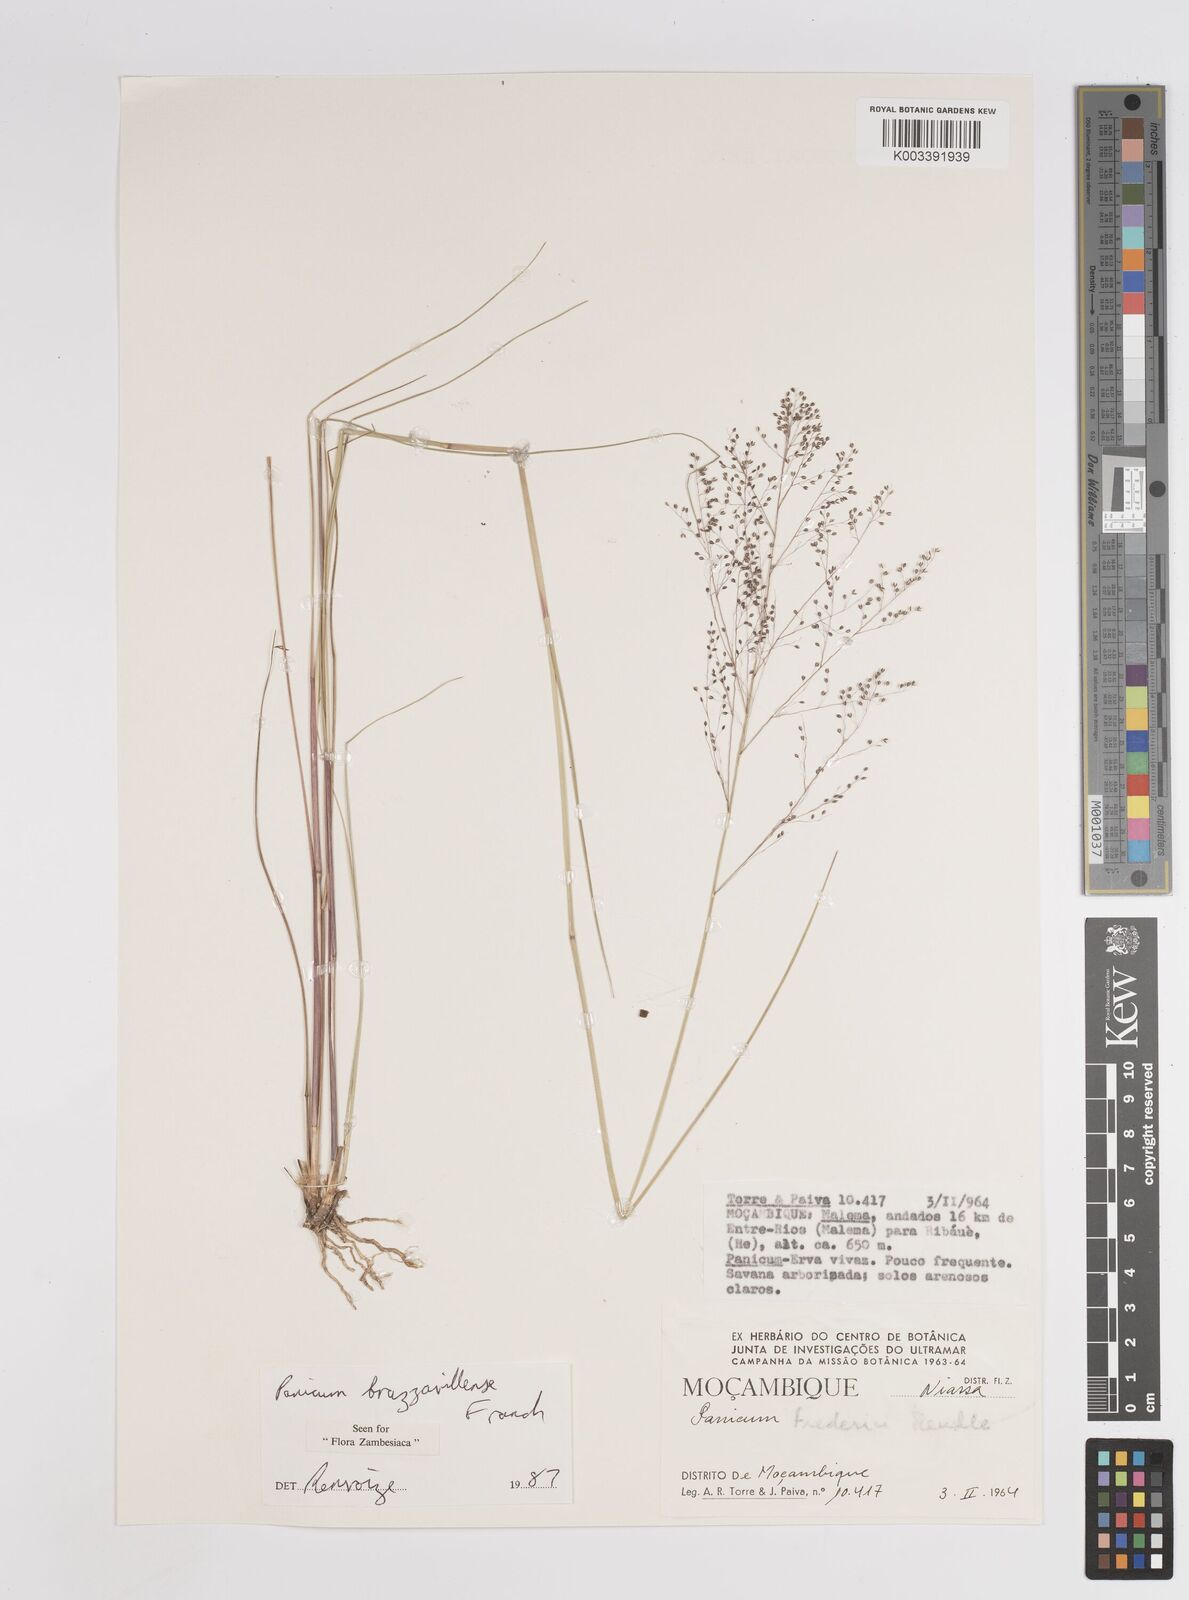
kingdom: Plantae
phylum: Tracheophyta
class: Liliopsida
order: Poales
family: Poaceae
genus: Trichanthecium
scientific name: Trichanthecium brazzavillense
